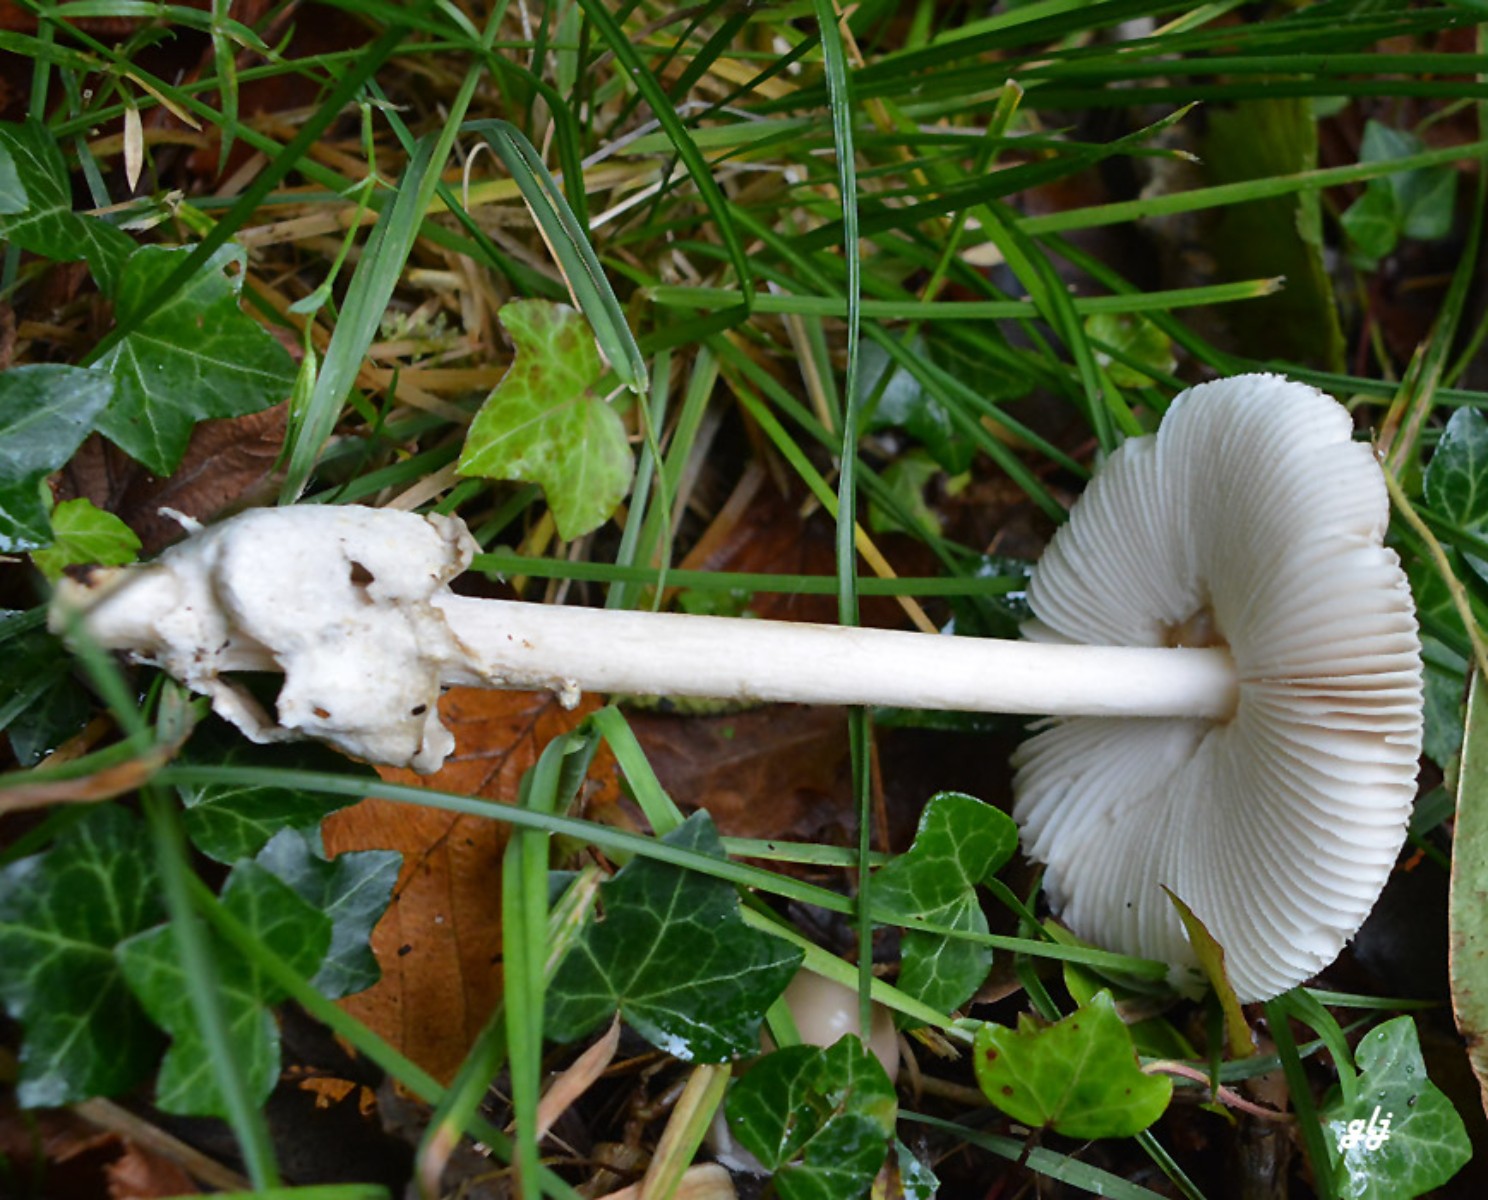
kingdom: Fungi
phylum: Basidiomycota
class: Agaricomycetes
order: Agaricales
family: Amanitaceae
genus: Amanita
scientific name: Amanita vaginata
